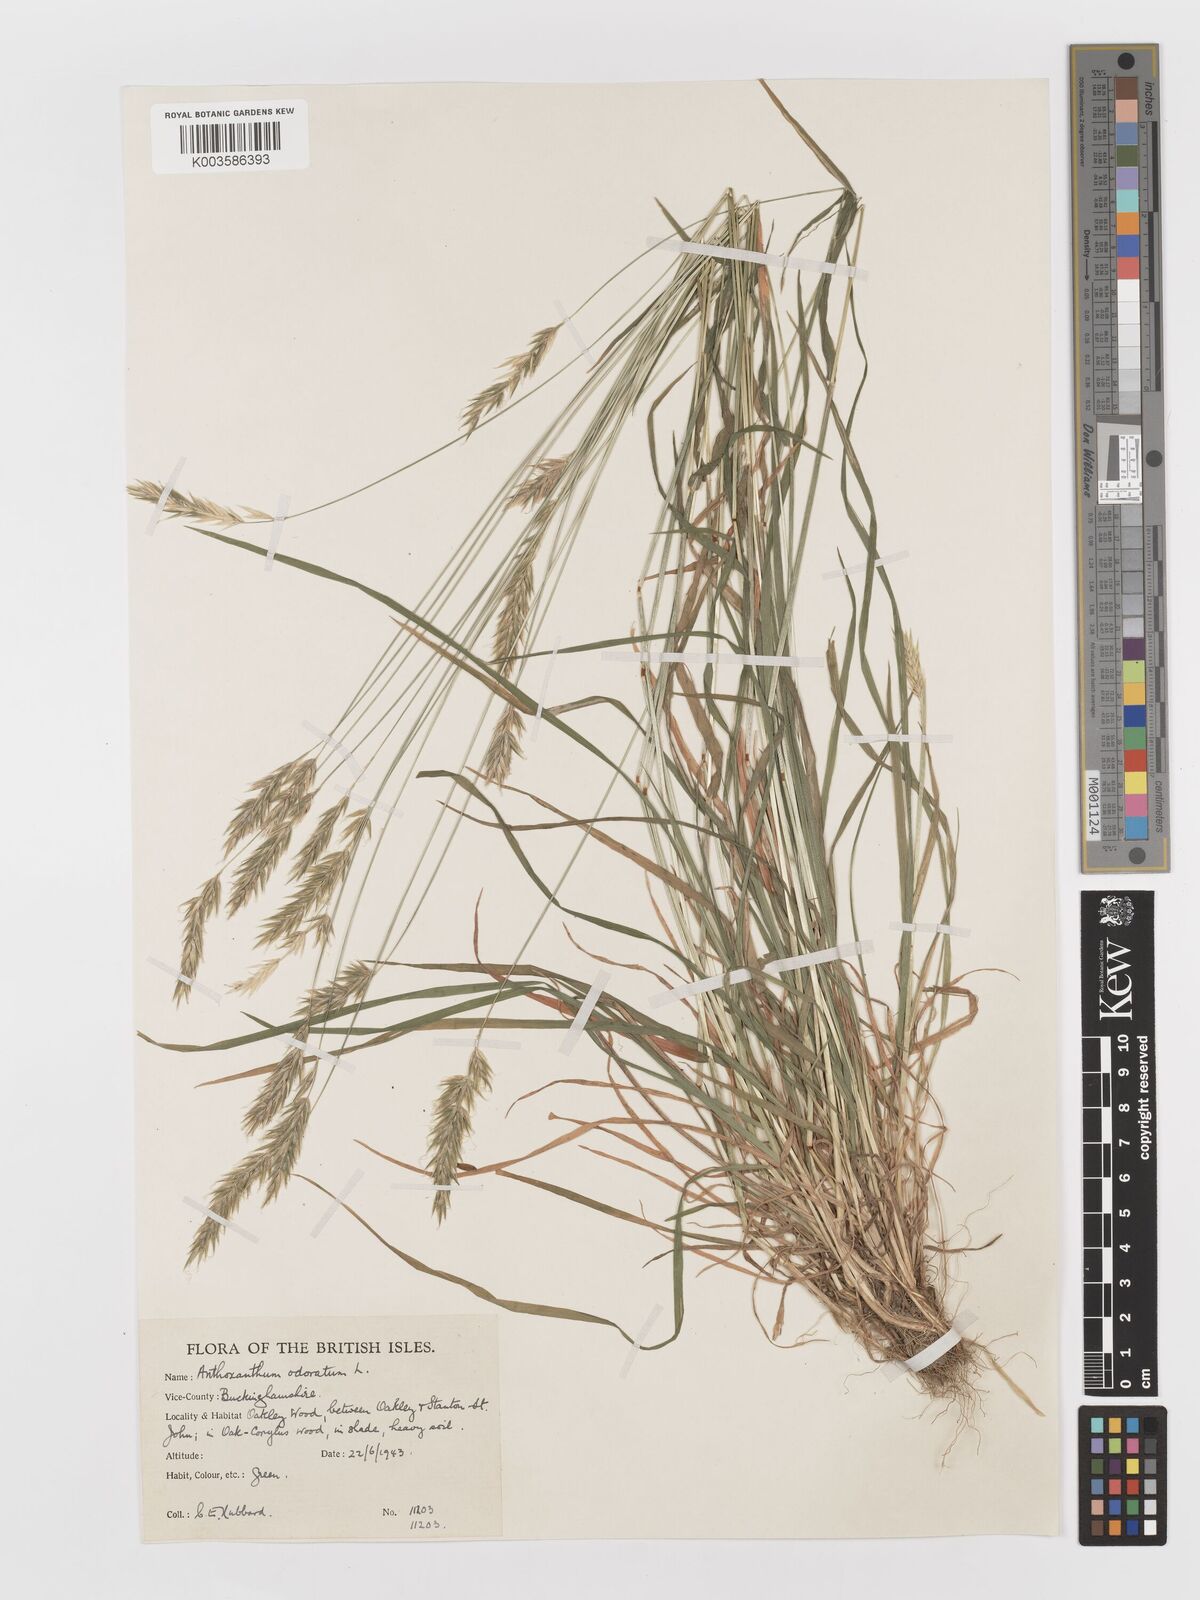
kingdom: Plantae
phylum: Tracheophyta
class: Liliopsida
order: Poales
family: Poaceae
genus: Anthoxanthum
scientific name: Anthoxanthum odoratum
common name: Sweet vernalgrass
